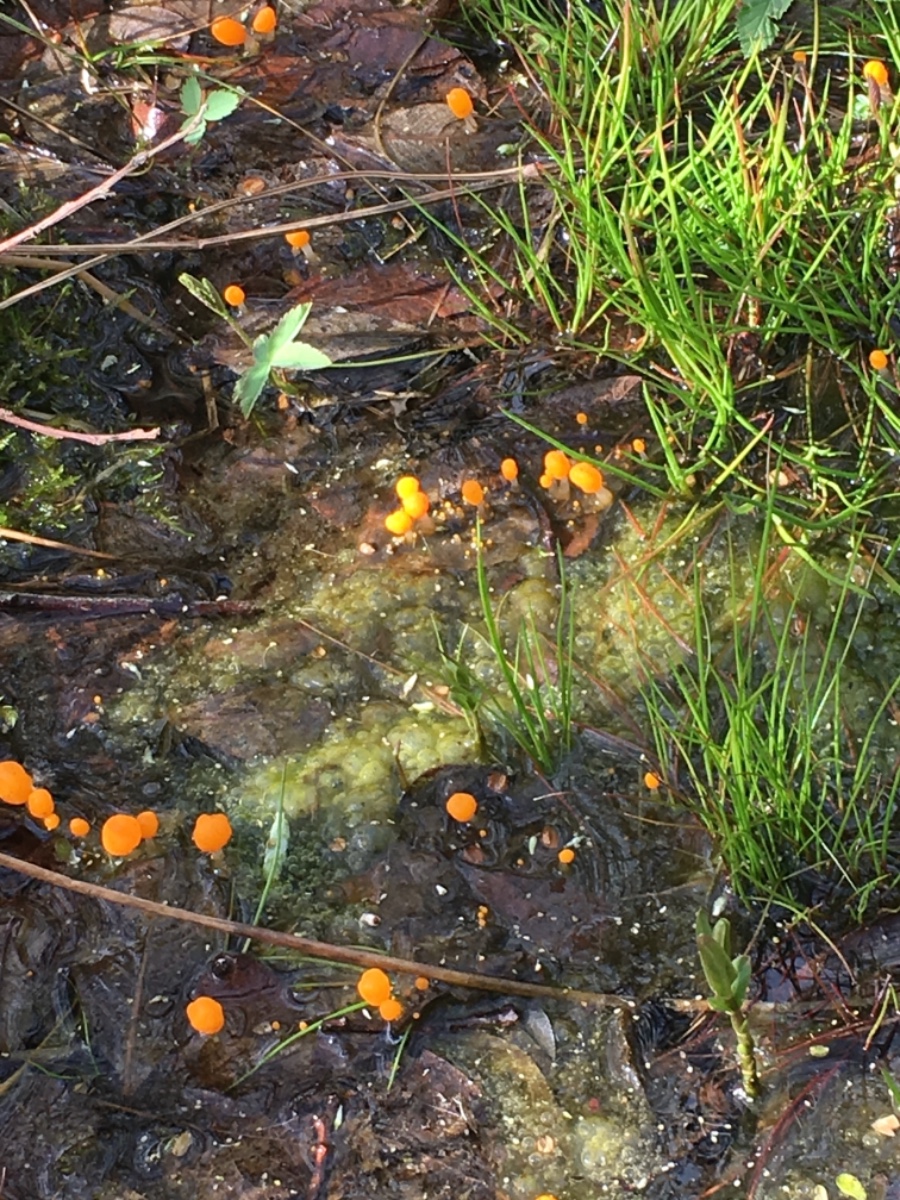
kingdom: Fungi
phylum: Ascomycota
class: Leotiomycetes
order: Helotiales
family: Cenangiaceae
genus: Mitrula
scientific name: Mitrula paludosa
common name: gul nøkketunge
